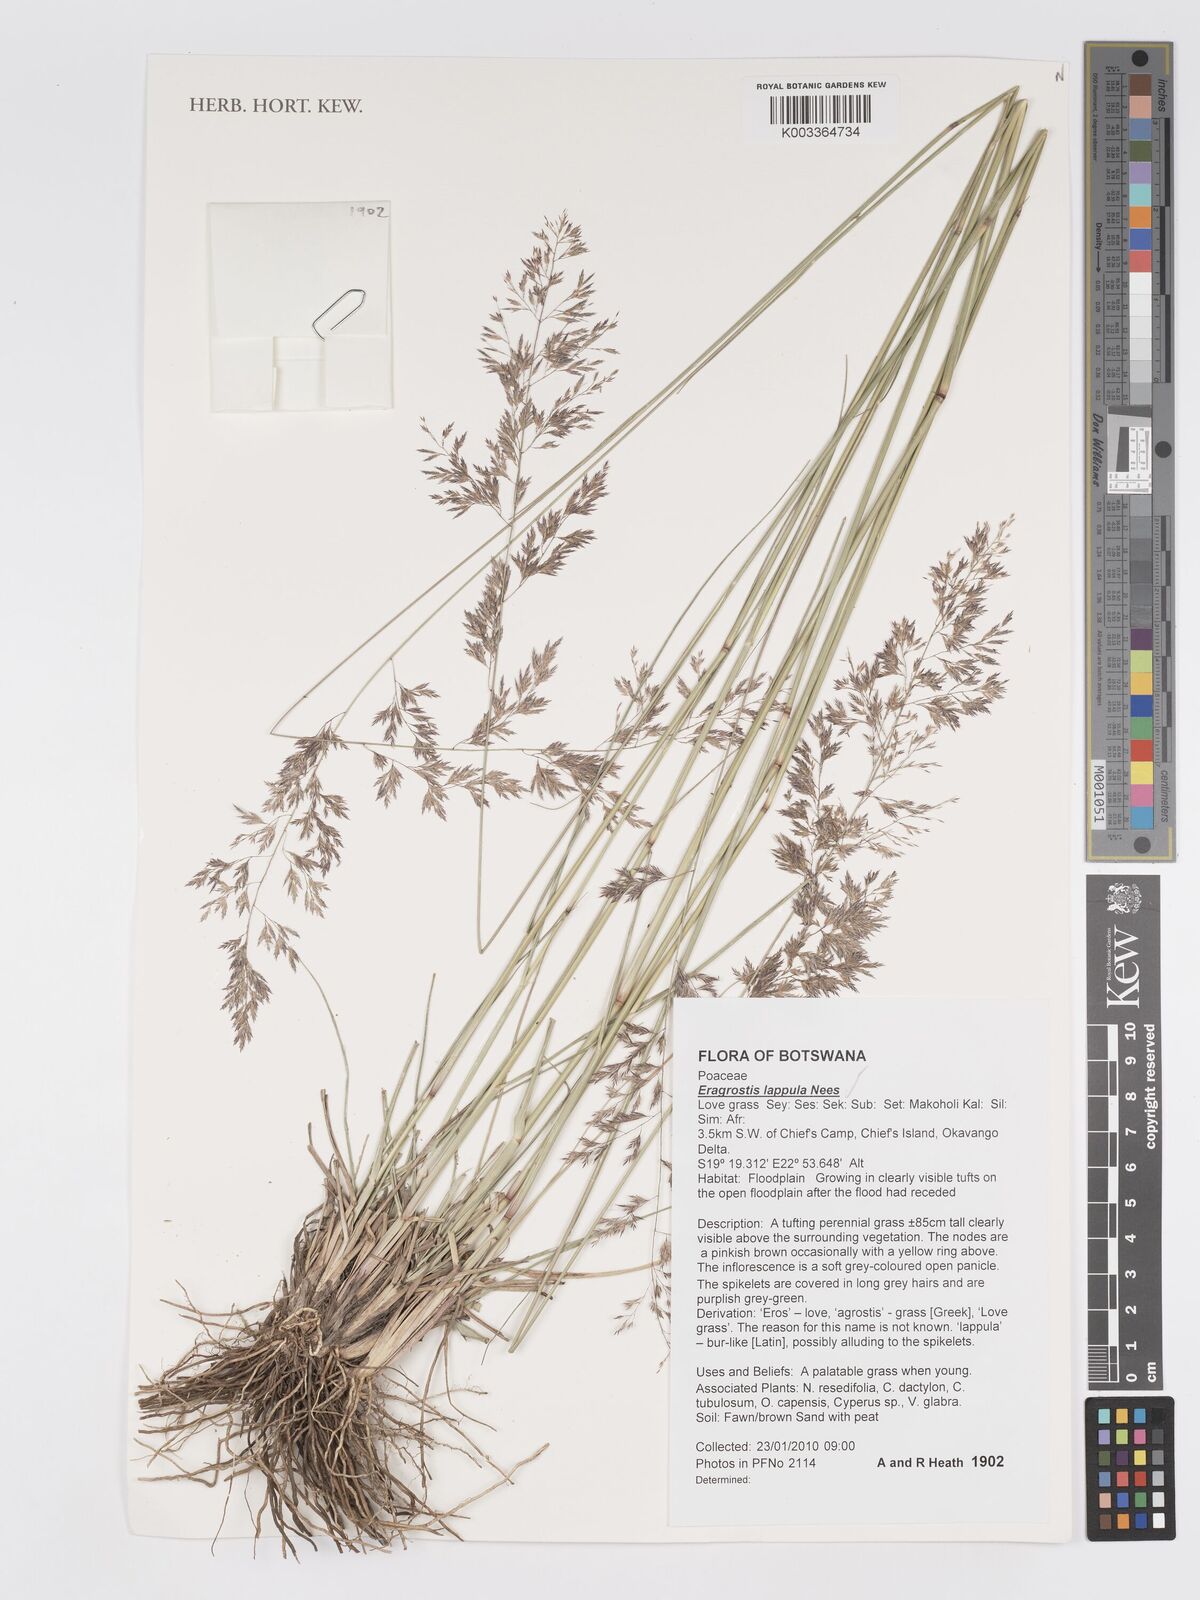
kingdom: Plantae
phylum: Tracheophyta
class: Liliopsida
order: Poales
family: Poaceae
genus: Eragrostis
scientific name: Eragrostis lappula
